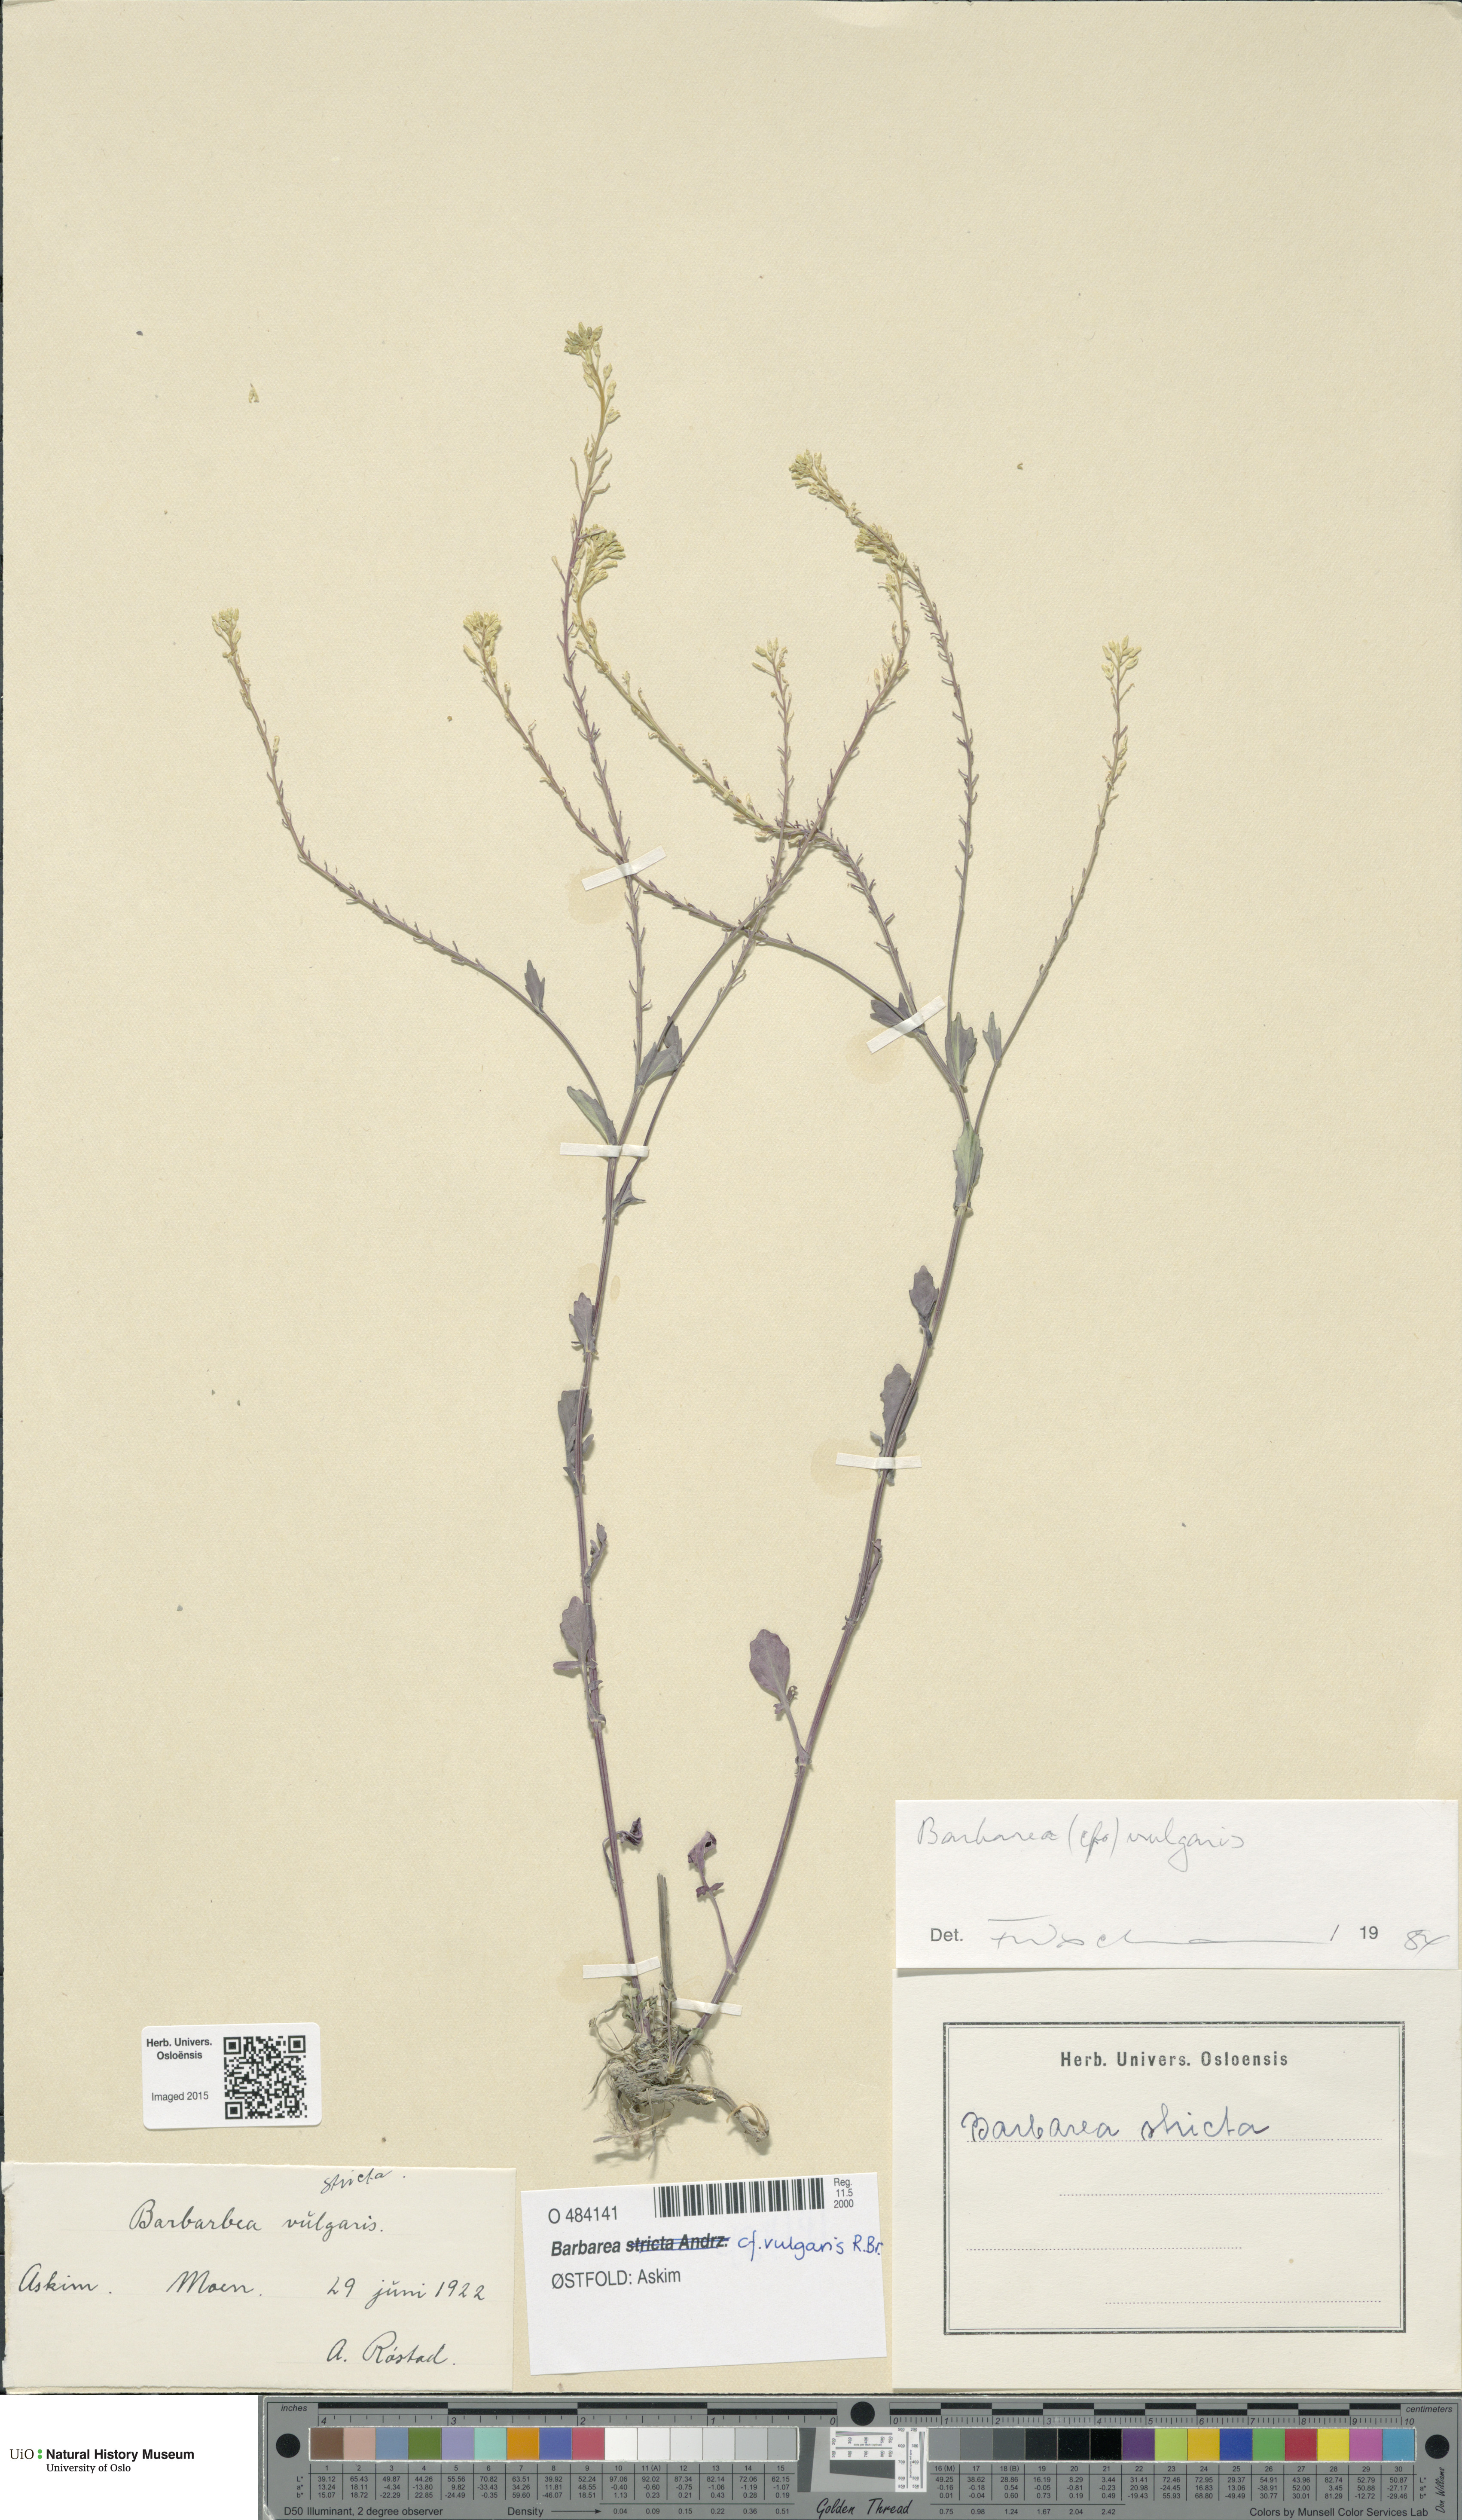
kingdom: Plantae
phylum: Tracheophyta
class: Magnoliopsida
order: Brassicales
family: Brassicaceae
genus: Barbarea
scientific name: Barbarea vulgaris
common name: Cressy-greens
